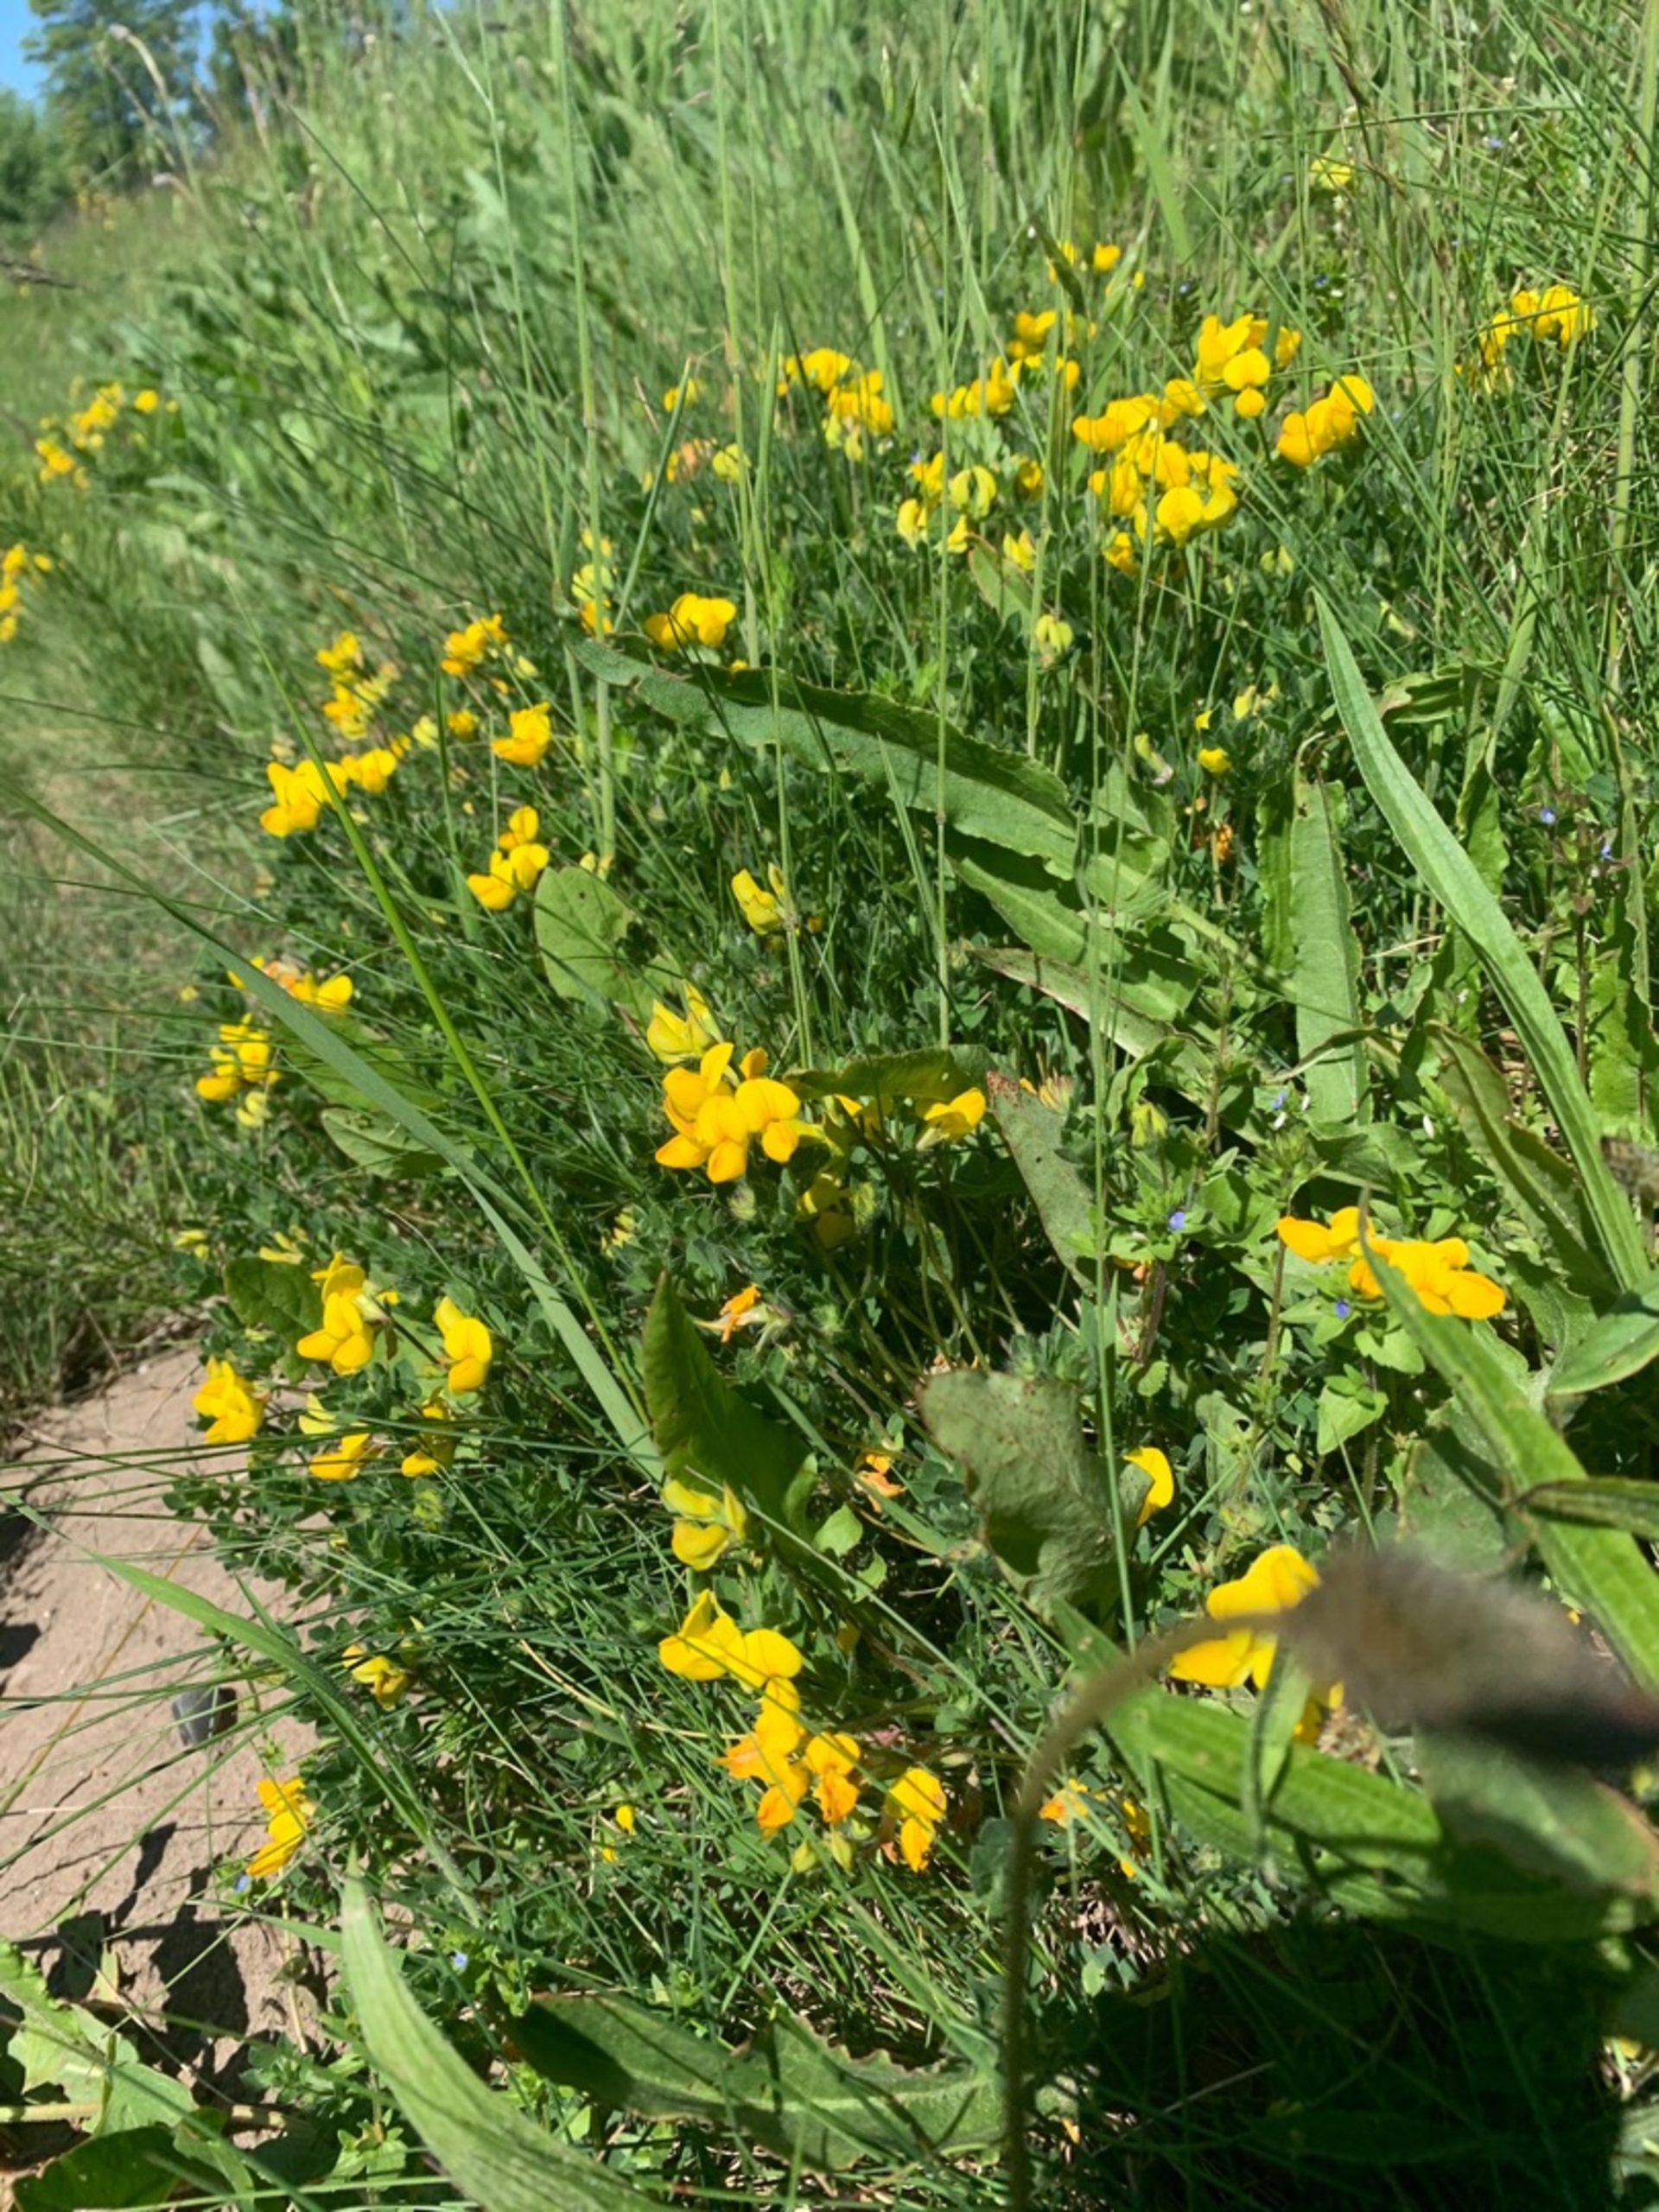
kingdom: Plantae
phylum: Tracheophyta
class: Magnoliopsida
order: Fabales
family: Fabaceae
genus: Lotus
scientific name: Lotus corniculatus
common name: Almindelig kællingetand
